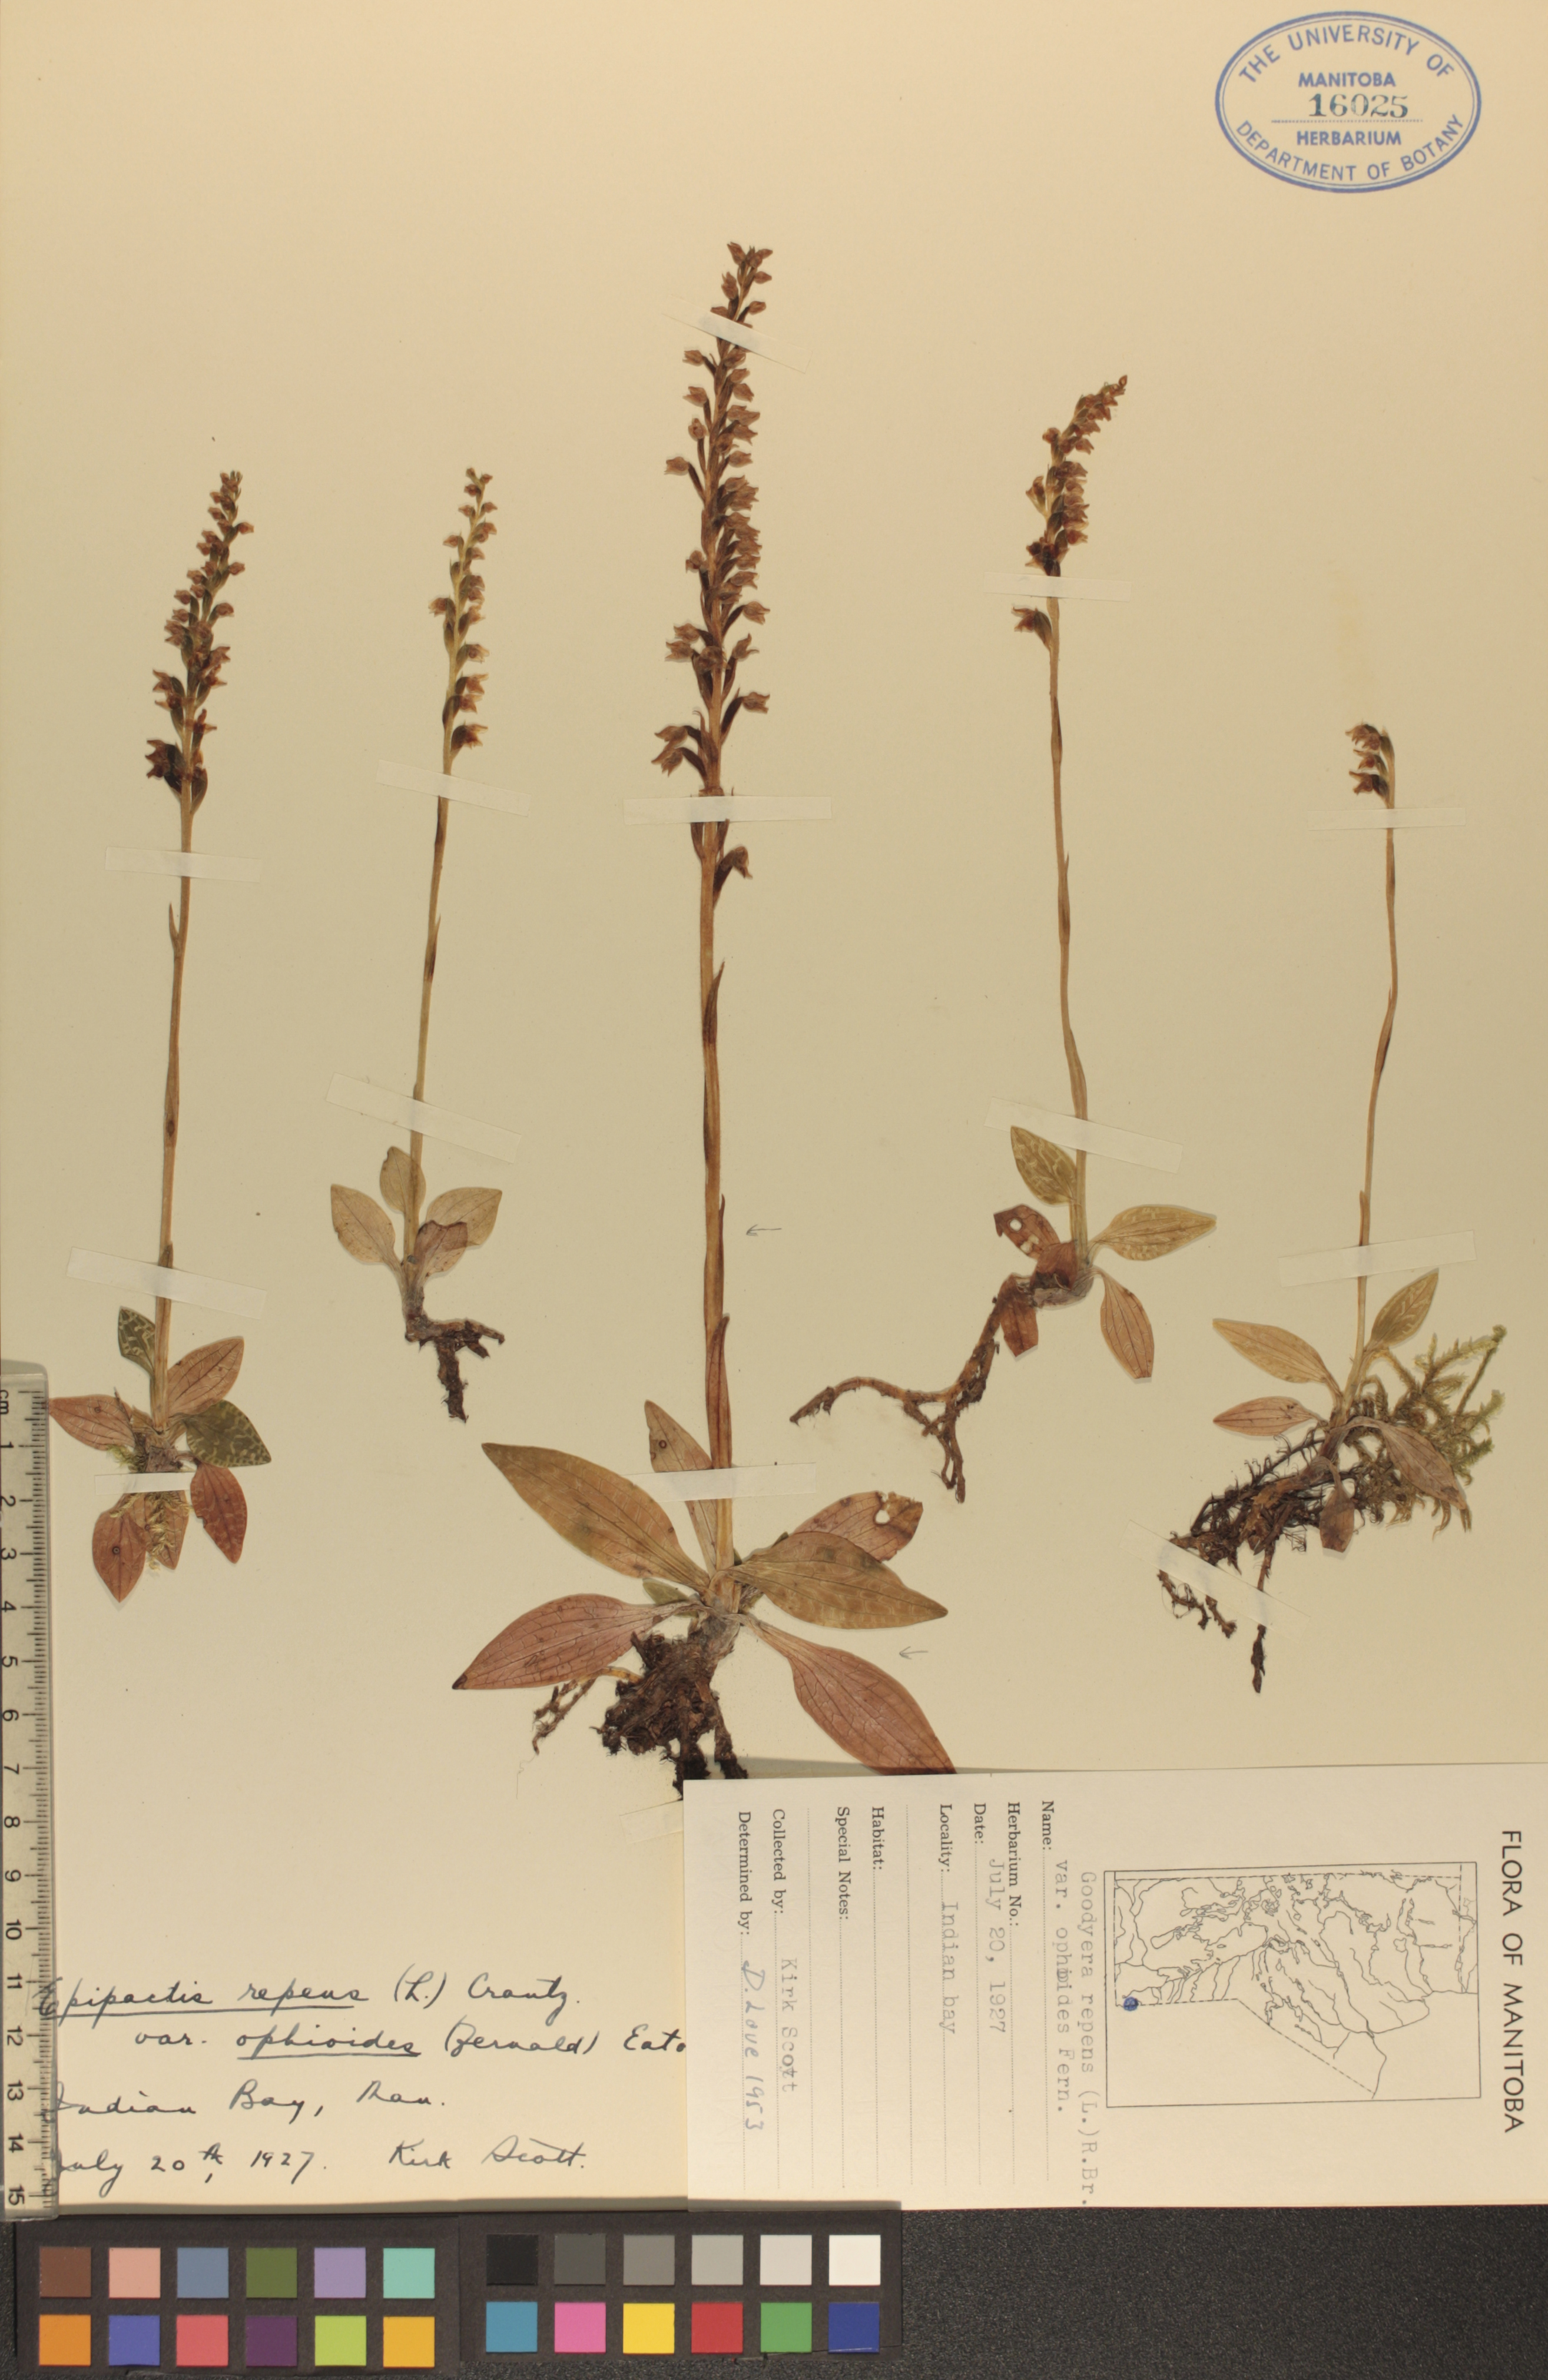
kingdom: Plantae
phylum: Tracheophyta
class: Liliopsida
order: Asparagales
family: Orchidaceae
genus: Goodyera
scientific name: Goodyera repens
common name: Creeping lady's-tresses
